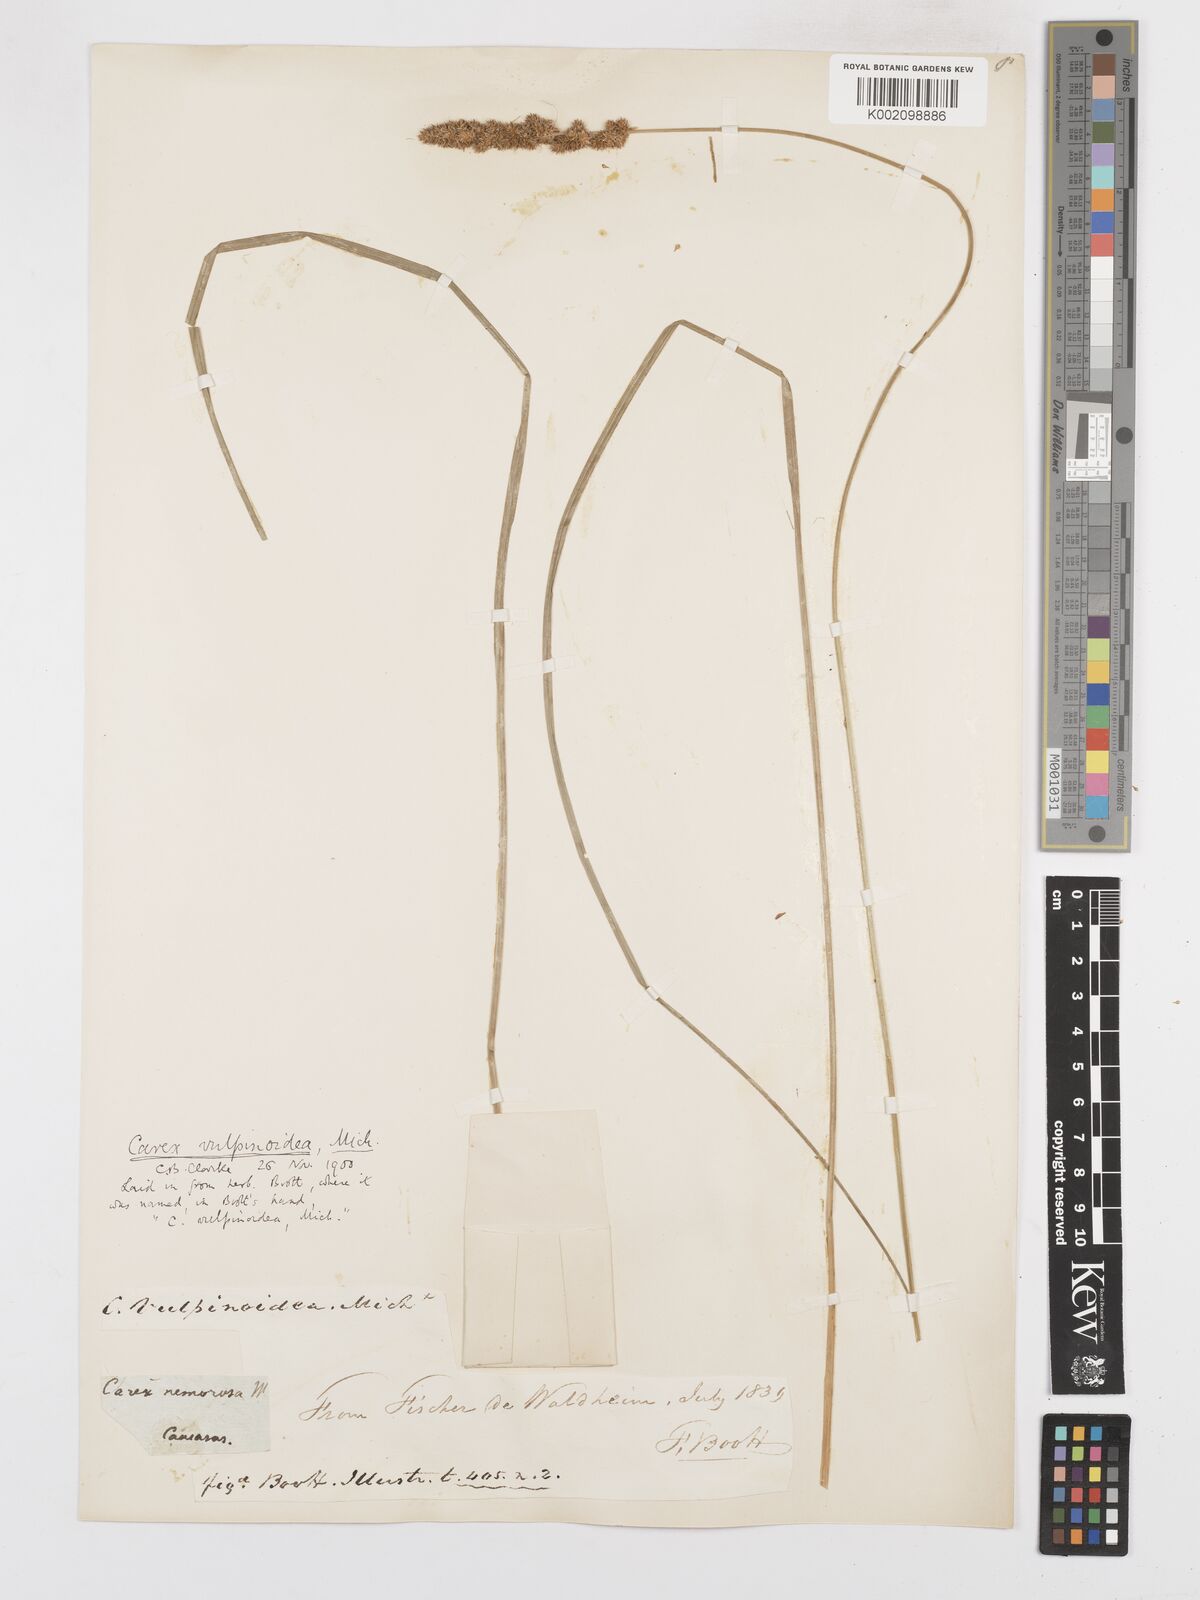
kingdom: Plantae
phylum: Tracheophyta
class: Liliopsida
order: Poales
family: Cyperaceae
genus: Carex
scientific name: Carex vulpinoidea
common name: American fox-sedge
